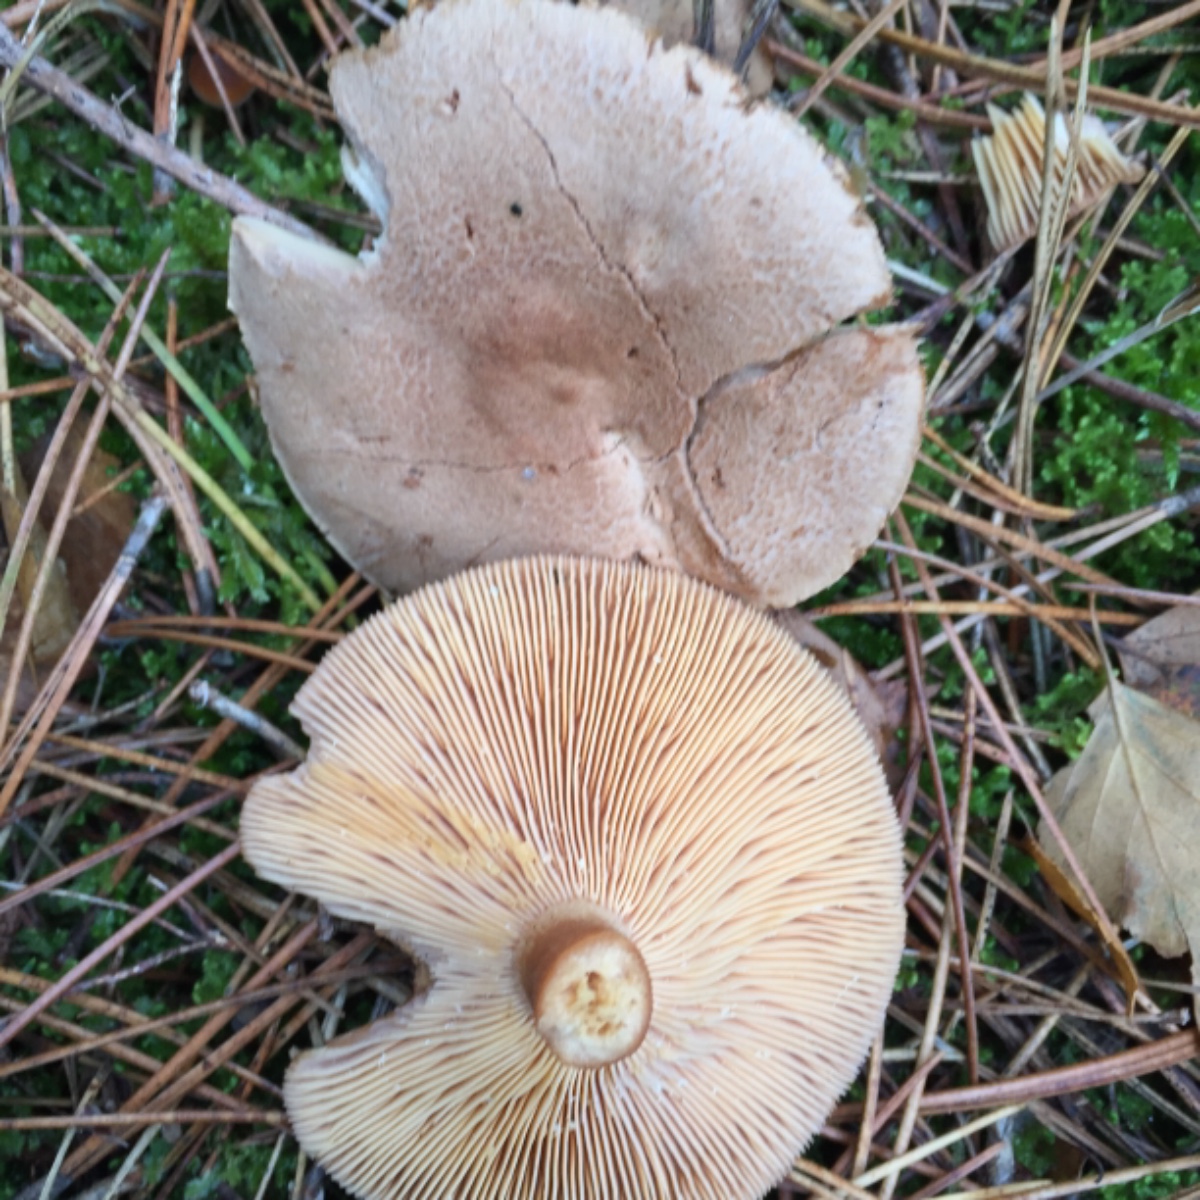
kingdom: Fungi
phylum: Basidiomycota
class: Agaricomycetes
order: Russulales
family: Russulaceae
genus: Lactarius
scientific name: Lactarius helvus
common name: mose-mælkehat
